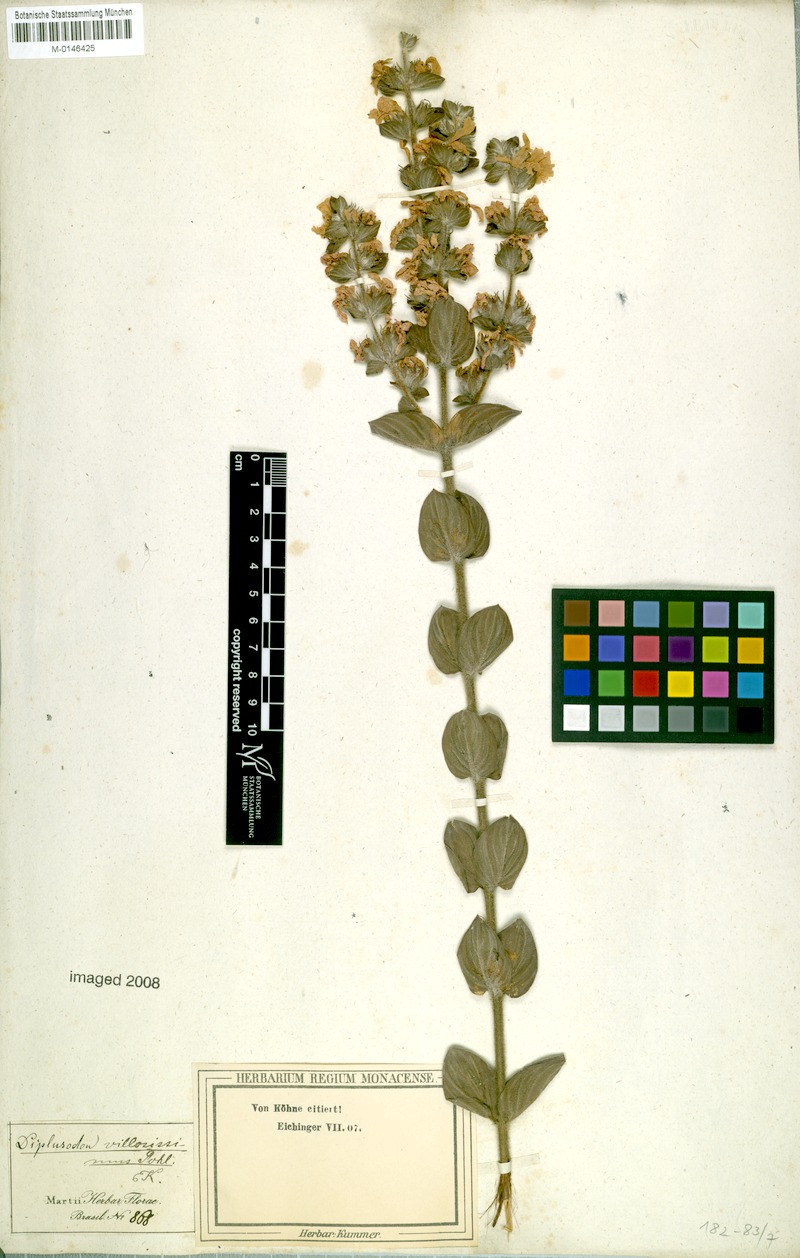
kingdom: Plantae
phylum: Tracheophyta
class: Magnoliopsida
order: Myrtales
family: Lythraceae
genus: Diplusodon
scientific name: Diplusodon villosissimus
